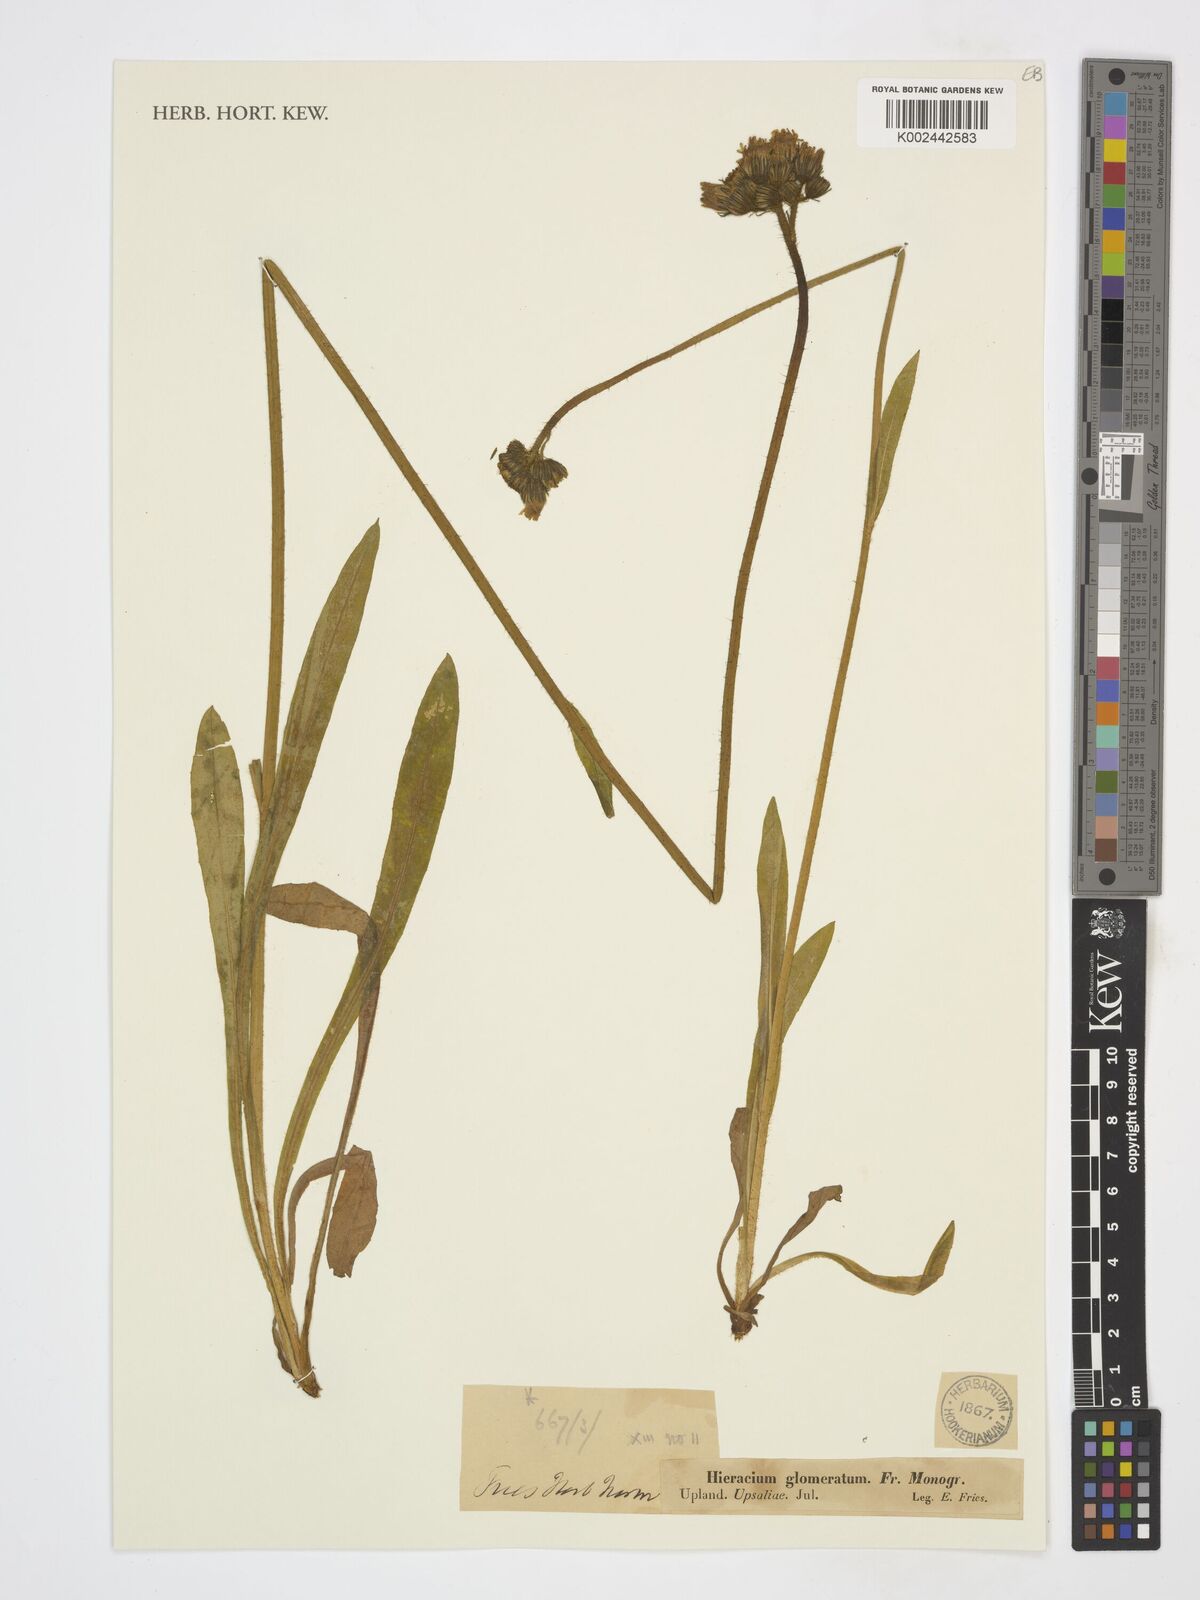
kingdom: Plantae
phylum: Tracheophyta
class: Magnoliopsida
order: Asterales
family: Asteraceae
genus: Pilosella
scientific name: Pilosella glomerata
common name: Queen devil hawkweed
